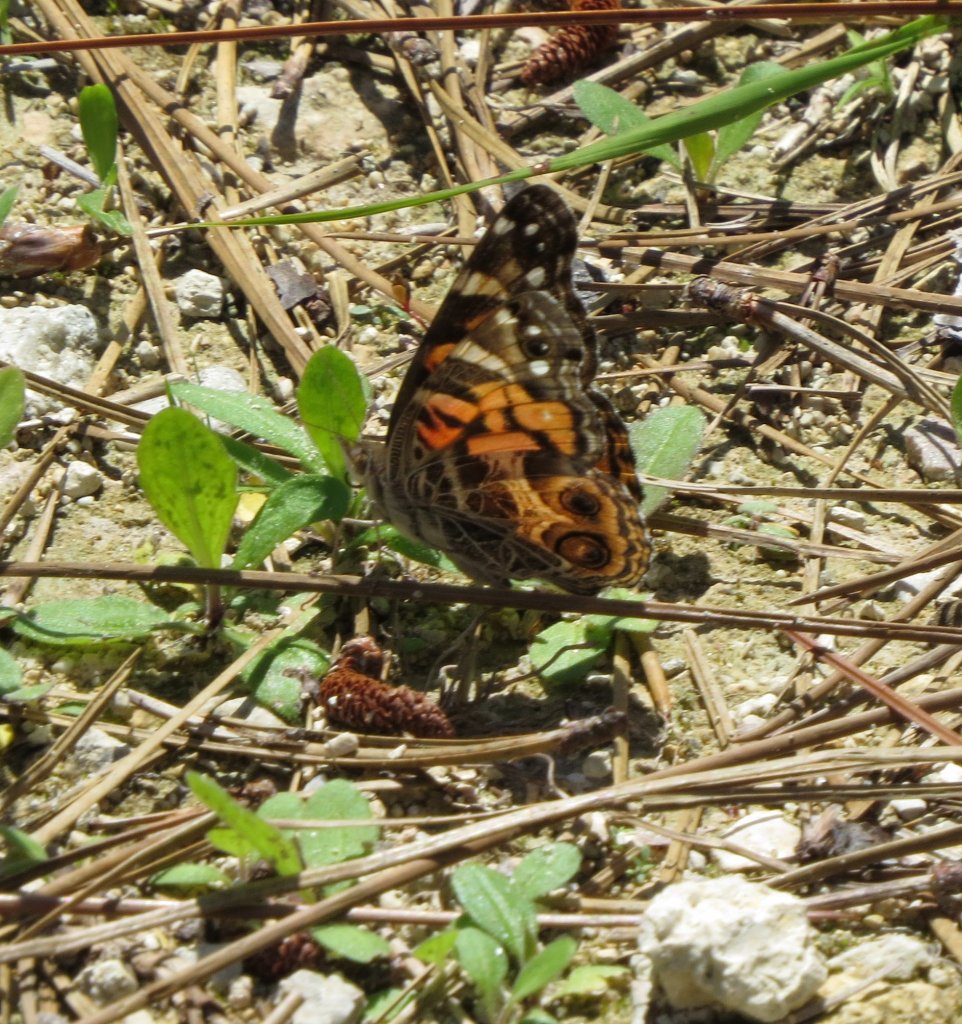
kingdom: Animalia
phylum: Arthropoda
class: Insecta
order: Lepidoptera
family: Nymphalidae
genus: Vanessa
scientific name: Vanessa virginiensis
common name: American Lady
